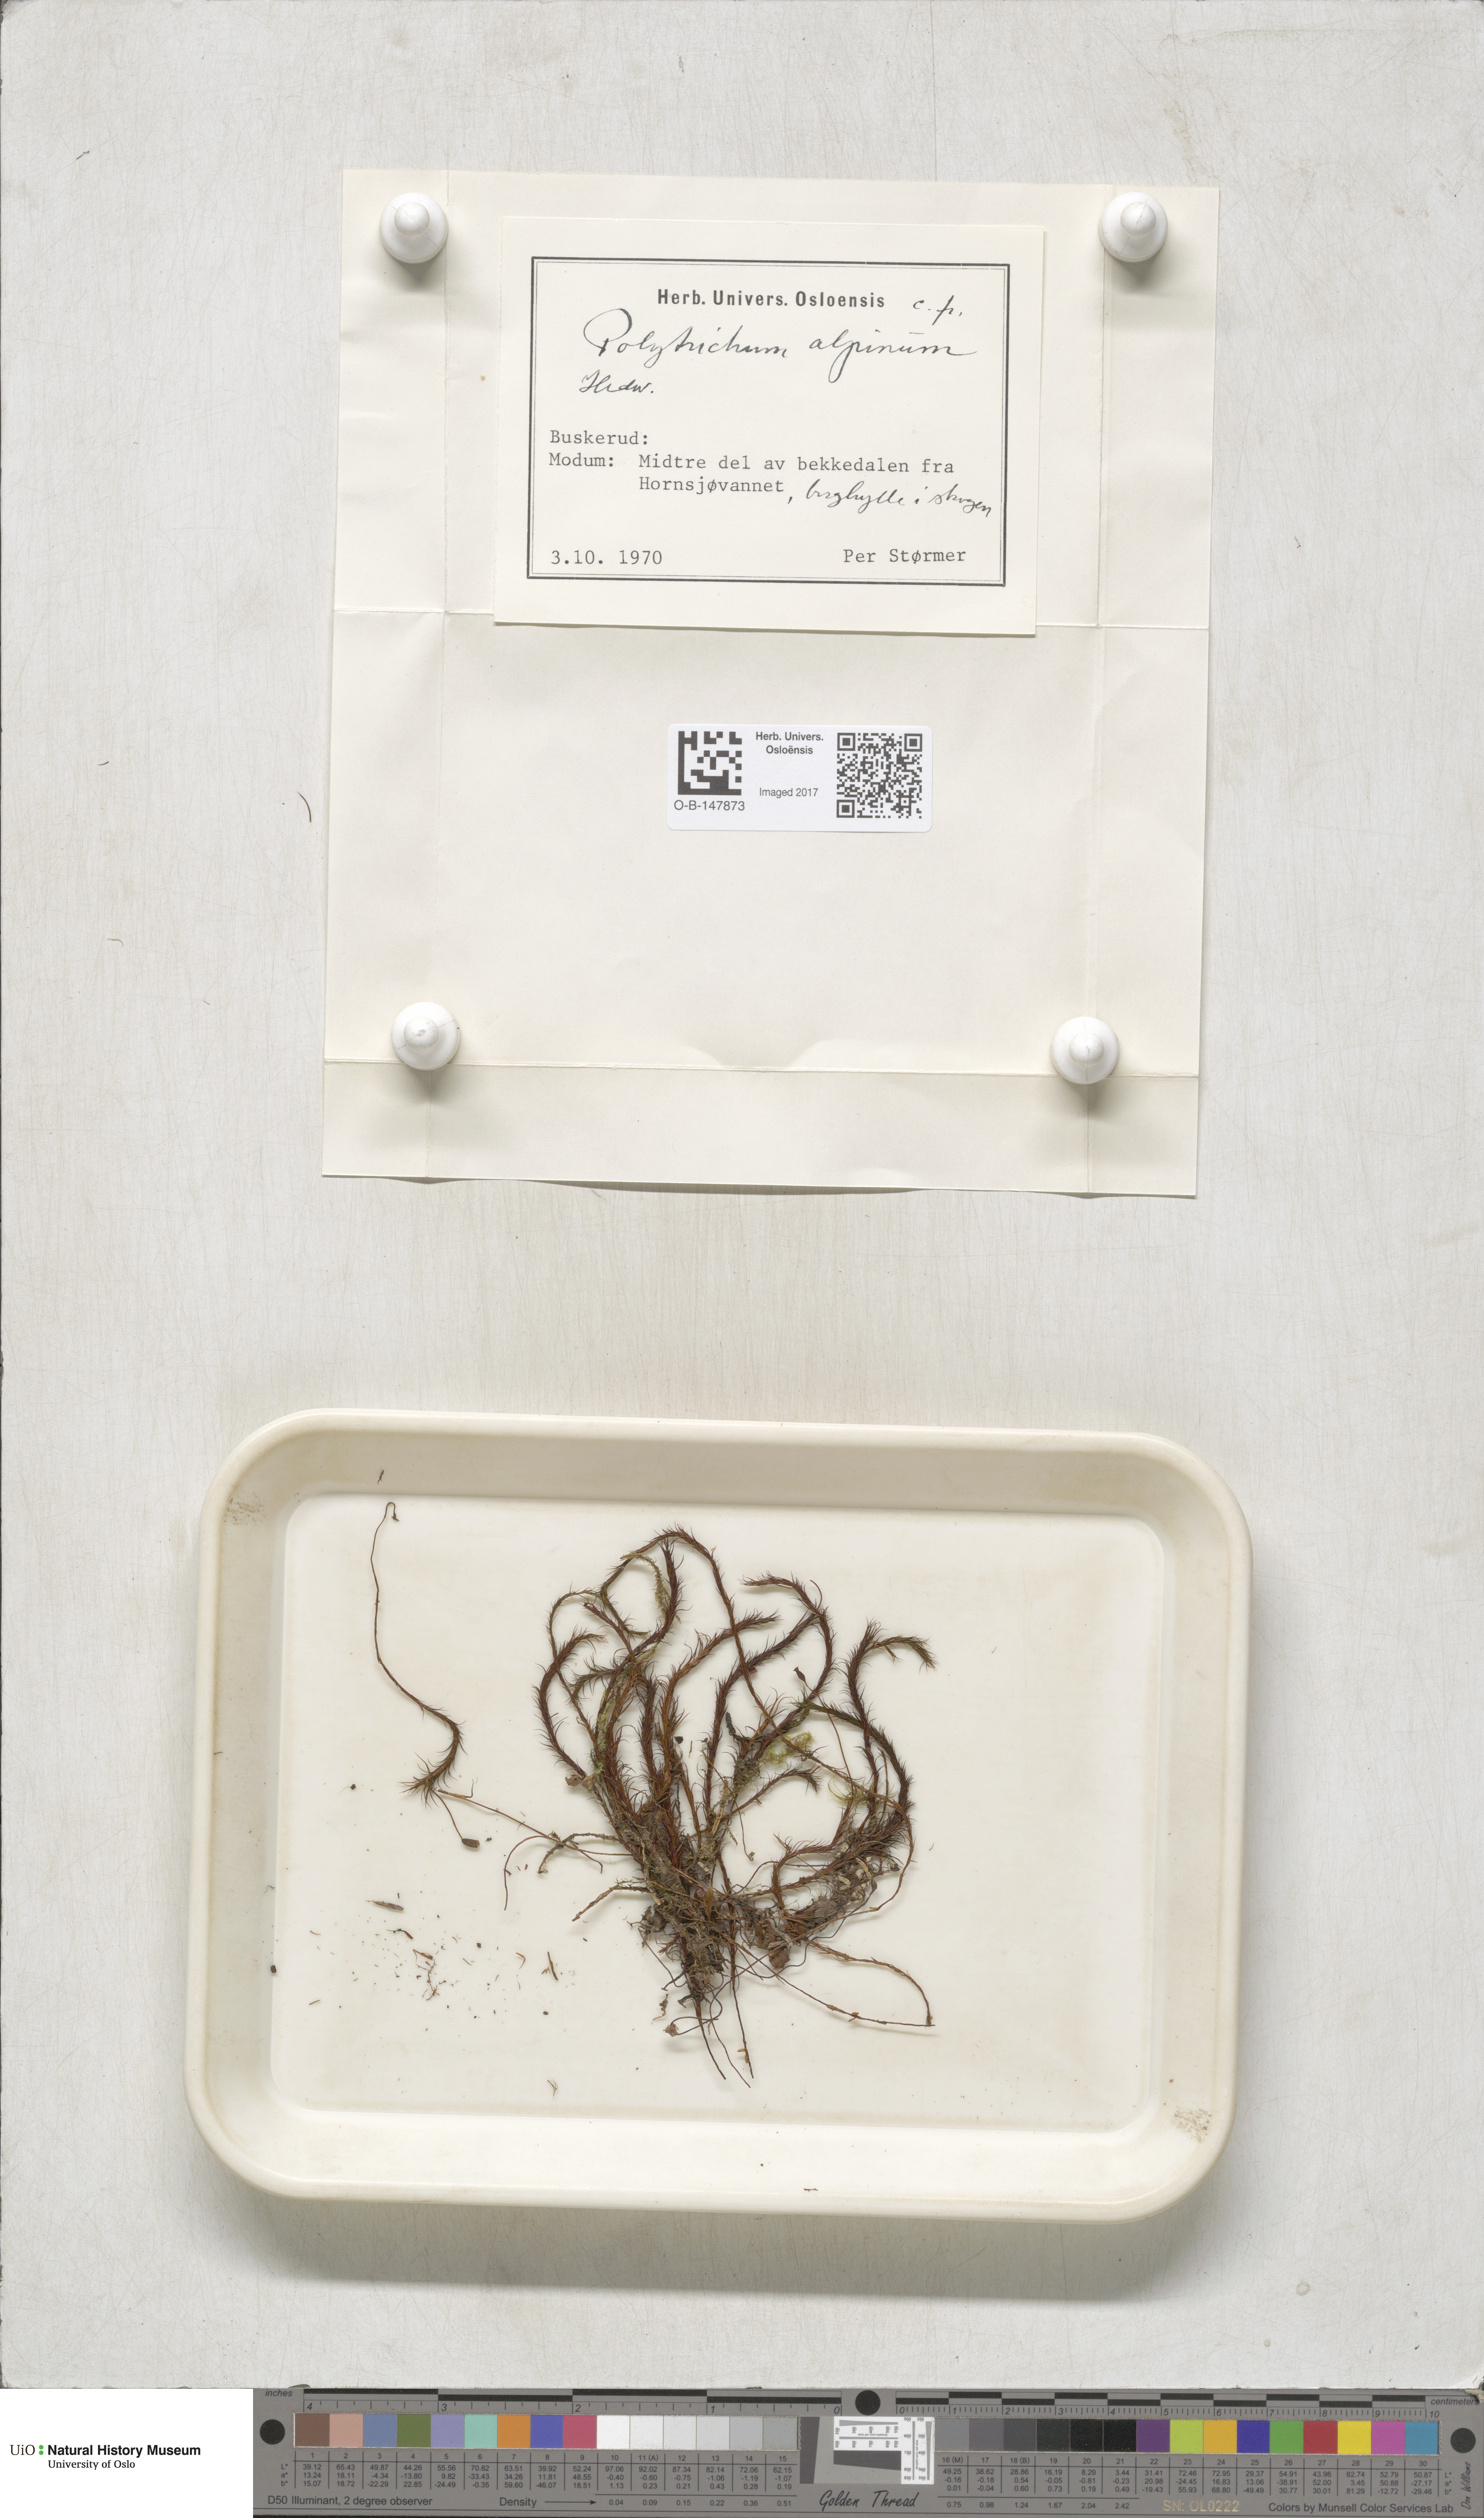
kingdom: Plantae
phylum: Bryophyta
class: Polytrichopsida
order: Polytrichales
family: Polytrichaceae
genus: Polytrichastrum
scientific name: Polytrichastrum alpinum
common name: Alpine haircap
